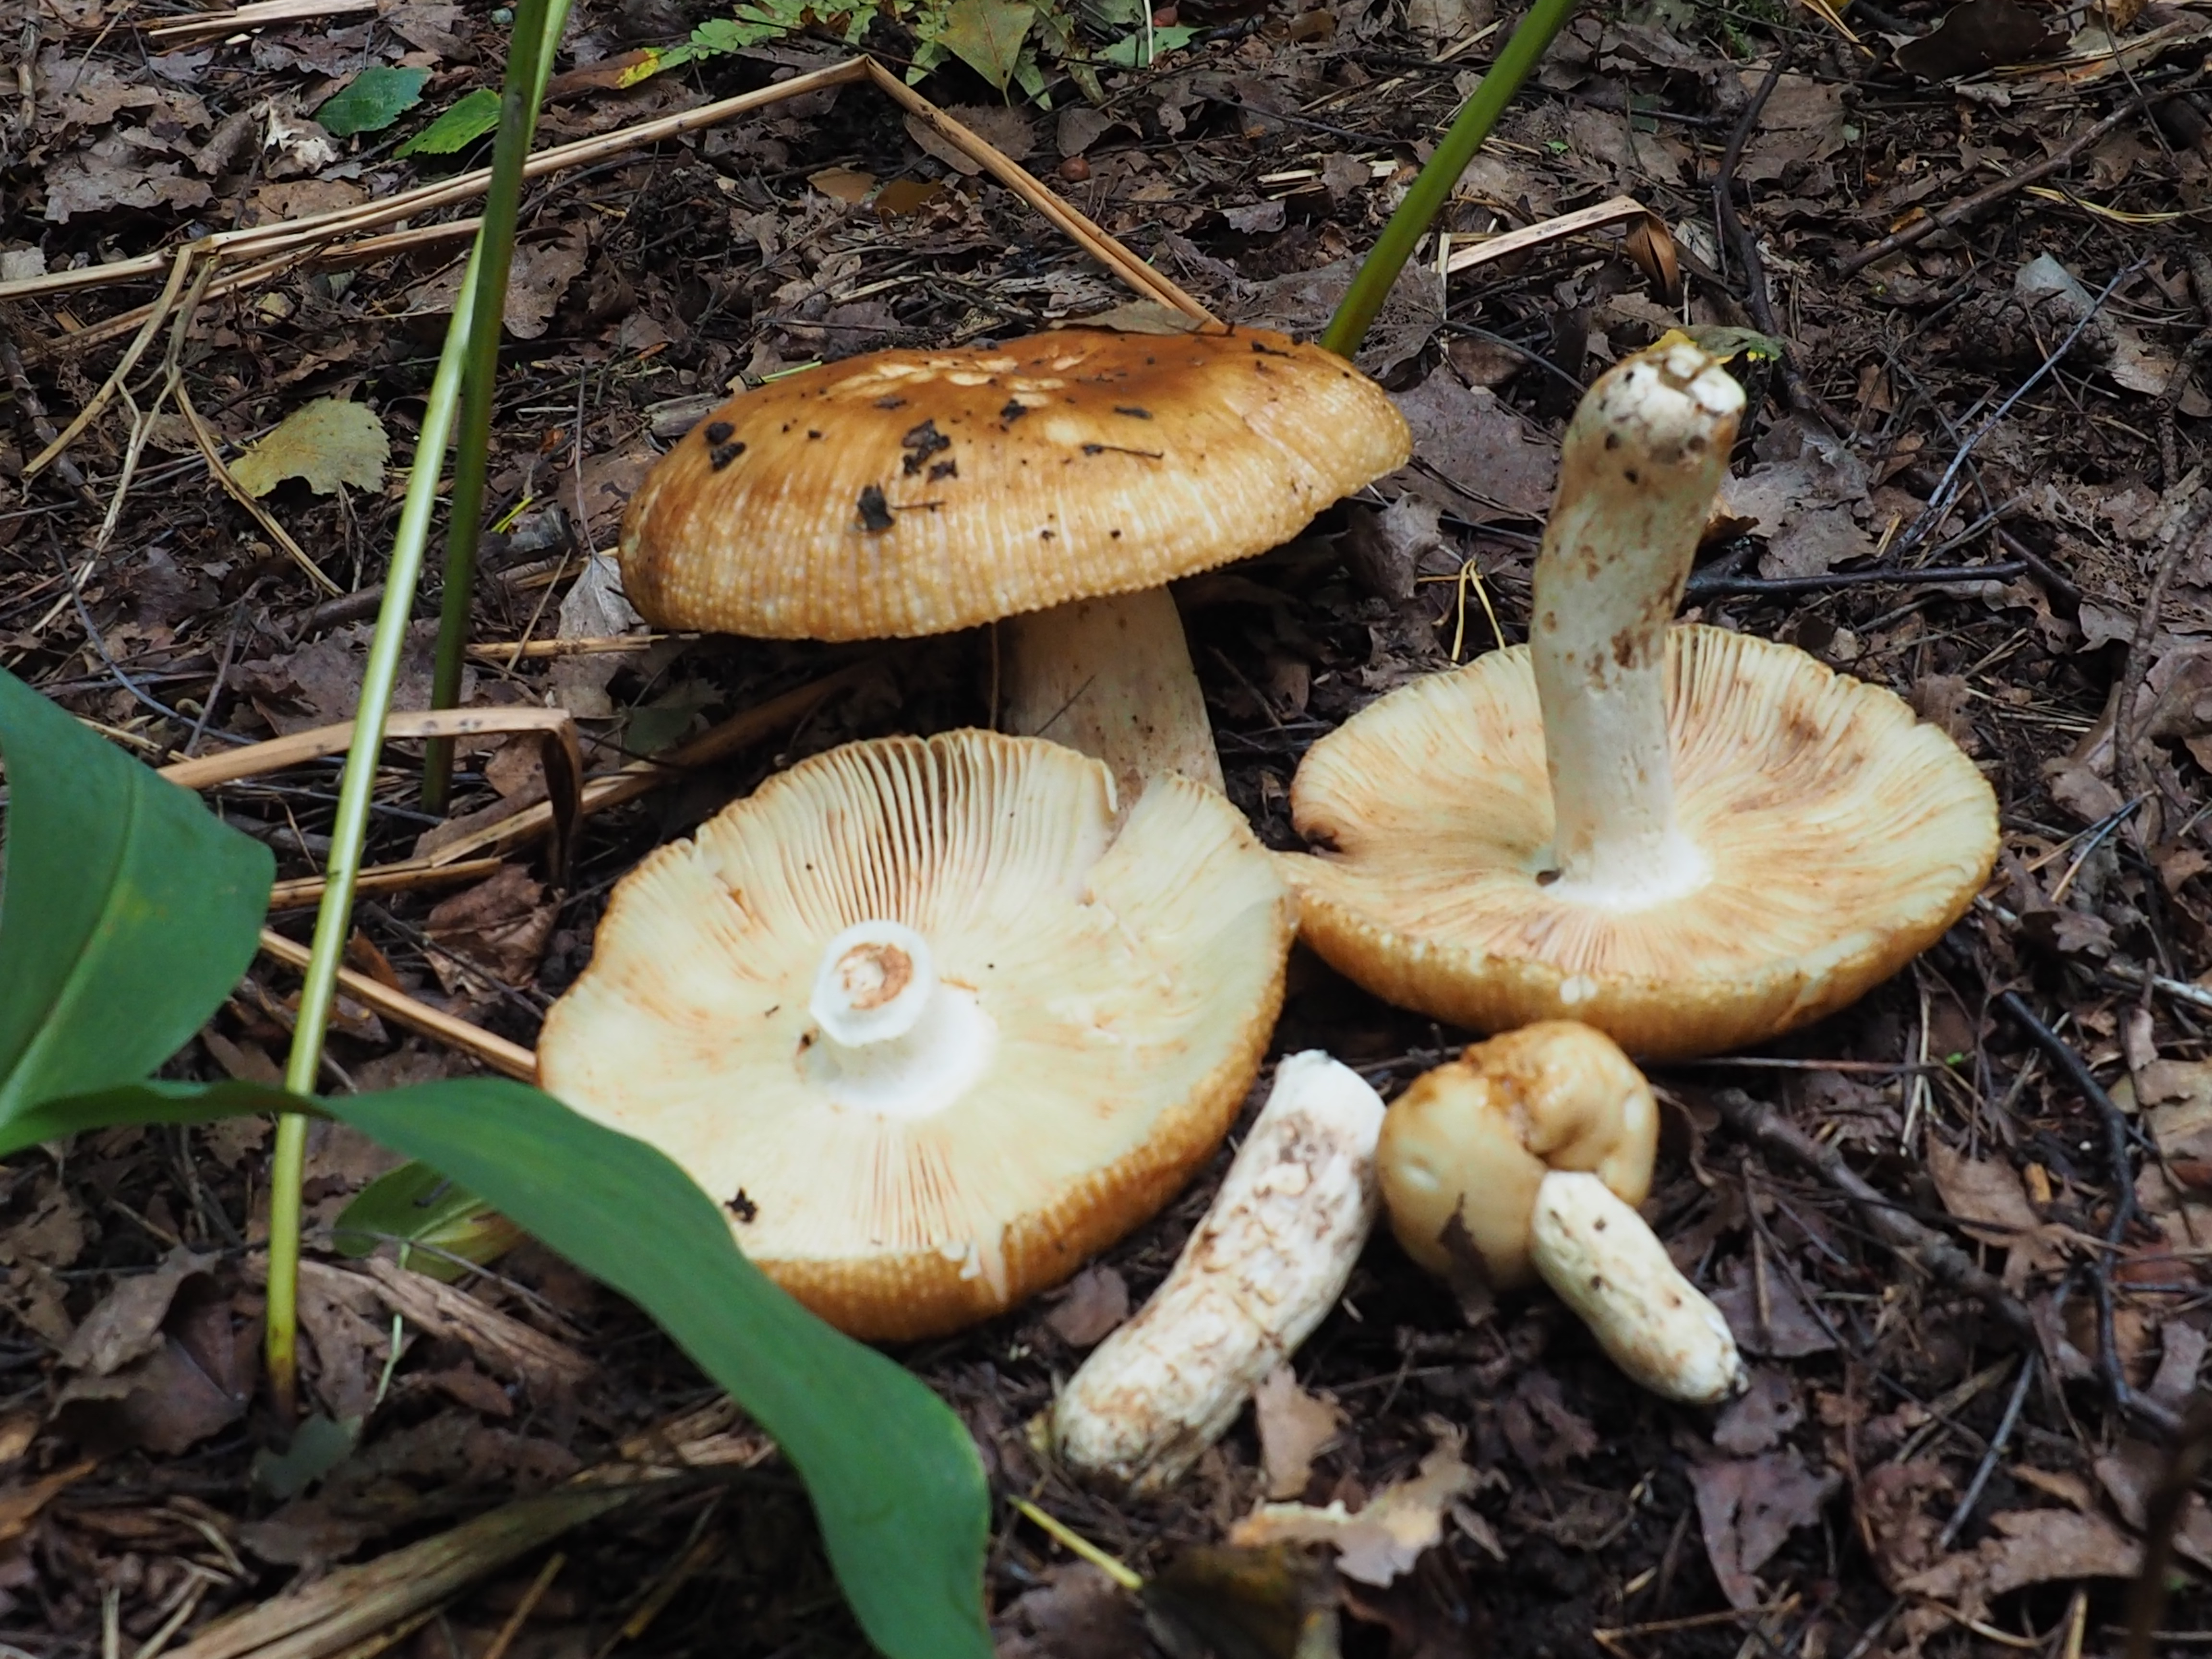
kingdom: Fungi
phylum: Basidiomycota
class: Agaricomycetes
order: Russulales
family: Russulaceae
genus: Russula
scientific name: Russula foetens
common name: Foetid russula
